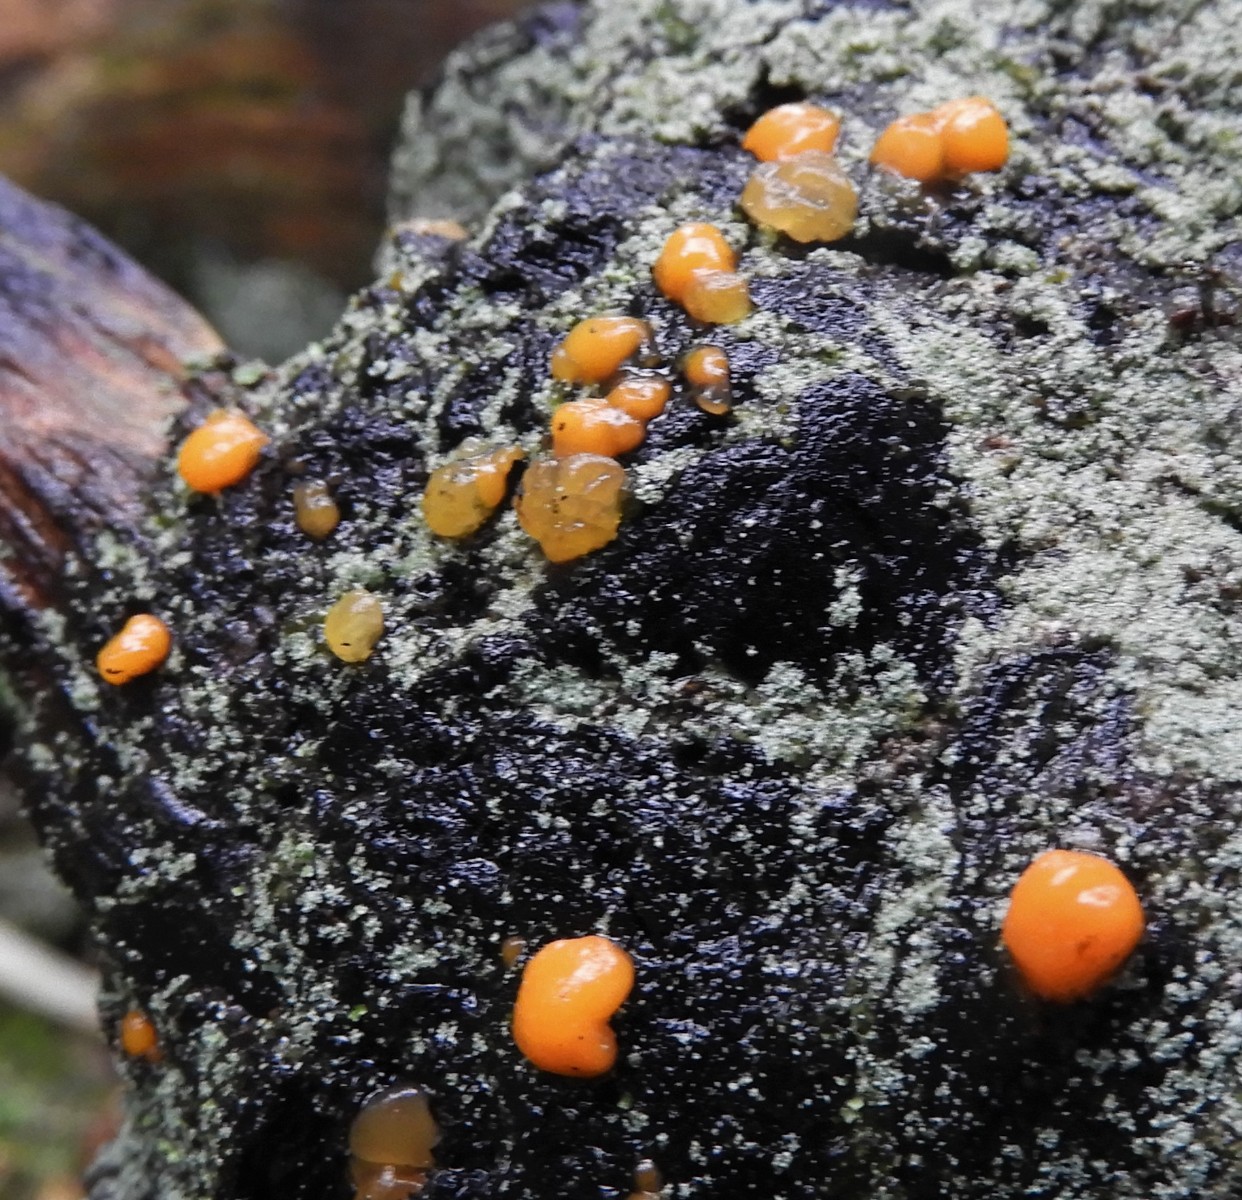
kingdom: Fungi
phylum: Basidiomycota
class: Dacrymycetes
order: Dacrymycetales
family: Dacrymycetaceae
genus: Dacrymyces
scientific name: Dacrymyces stillatus
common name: almindelig tåresvamp
